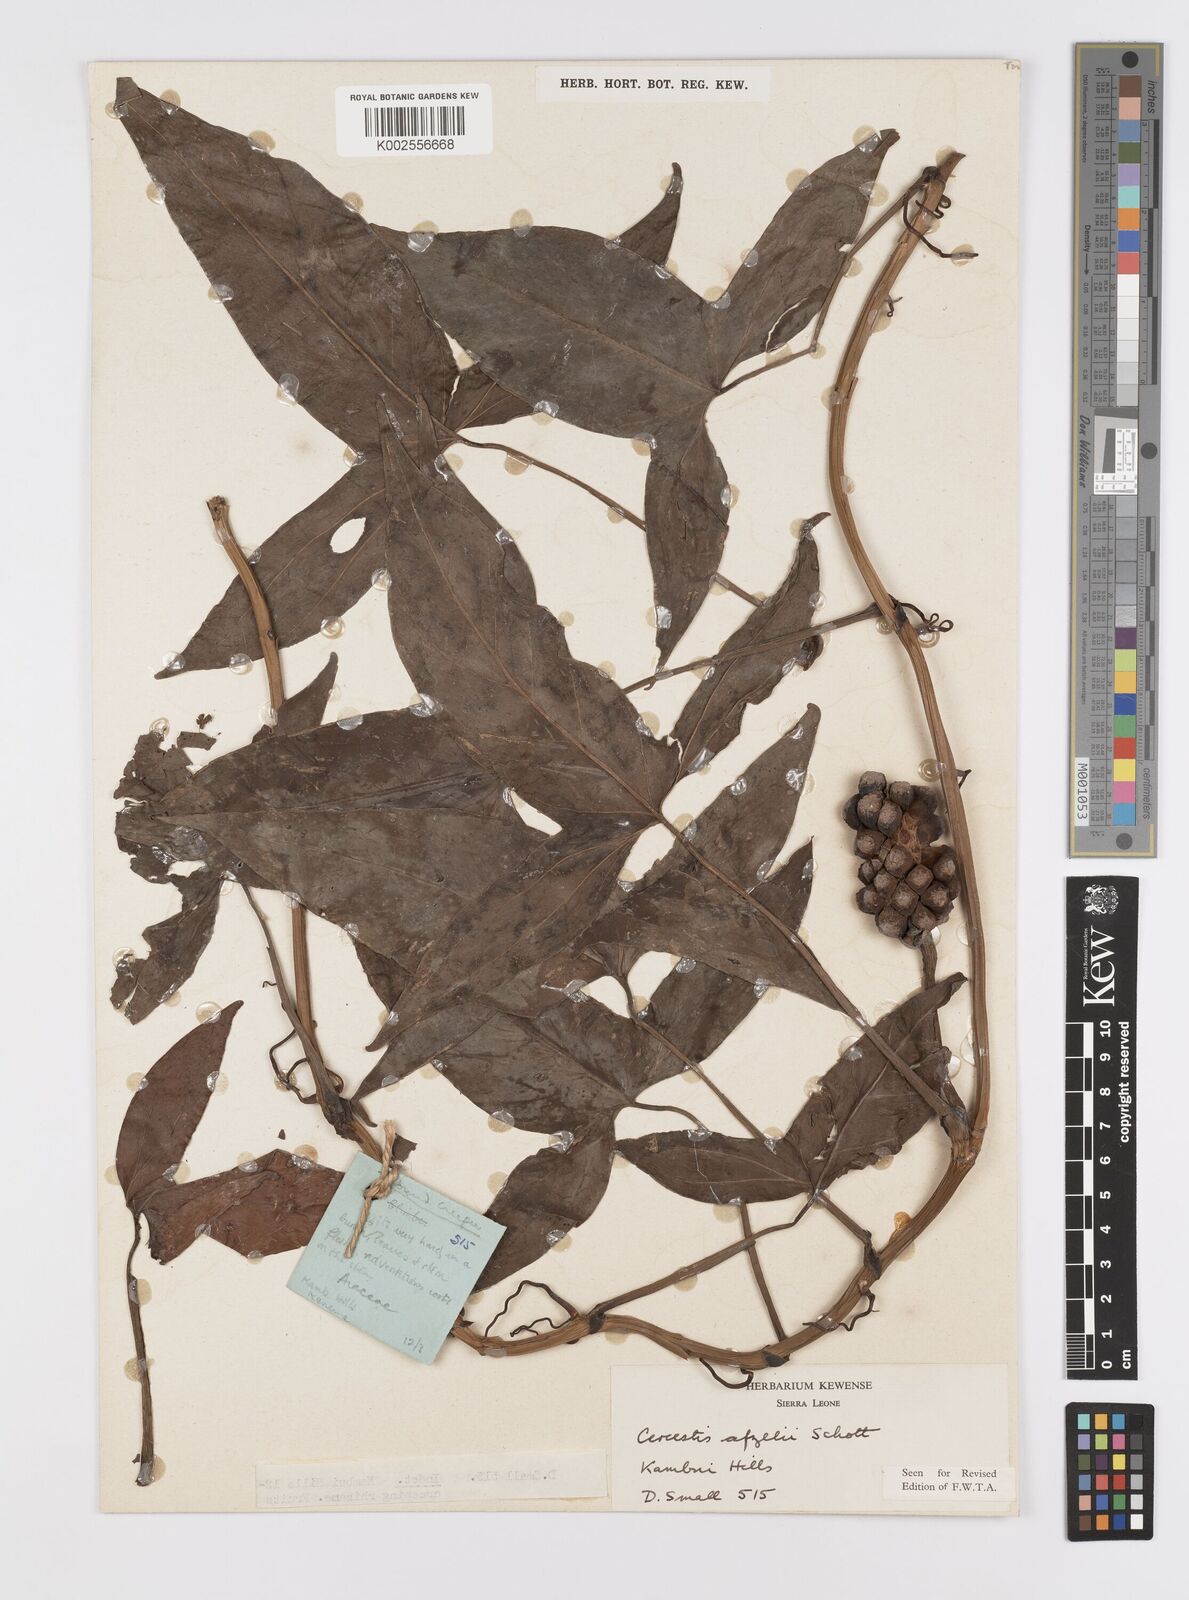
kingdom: Plantae
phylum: Tracheophyta
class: Liliopsida
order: Alismatales
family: Araceae
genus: Cercestis
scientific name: Cercestis afzelii
